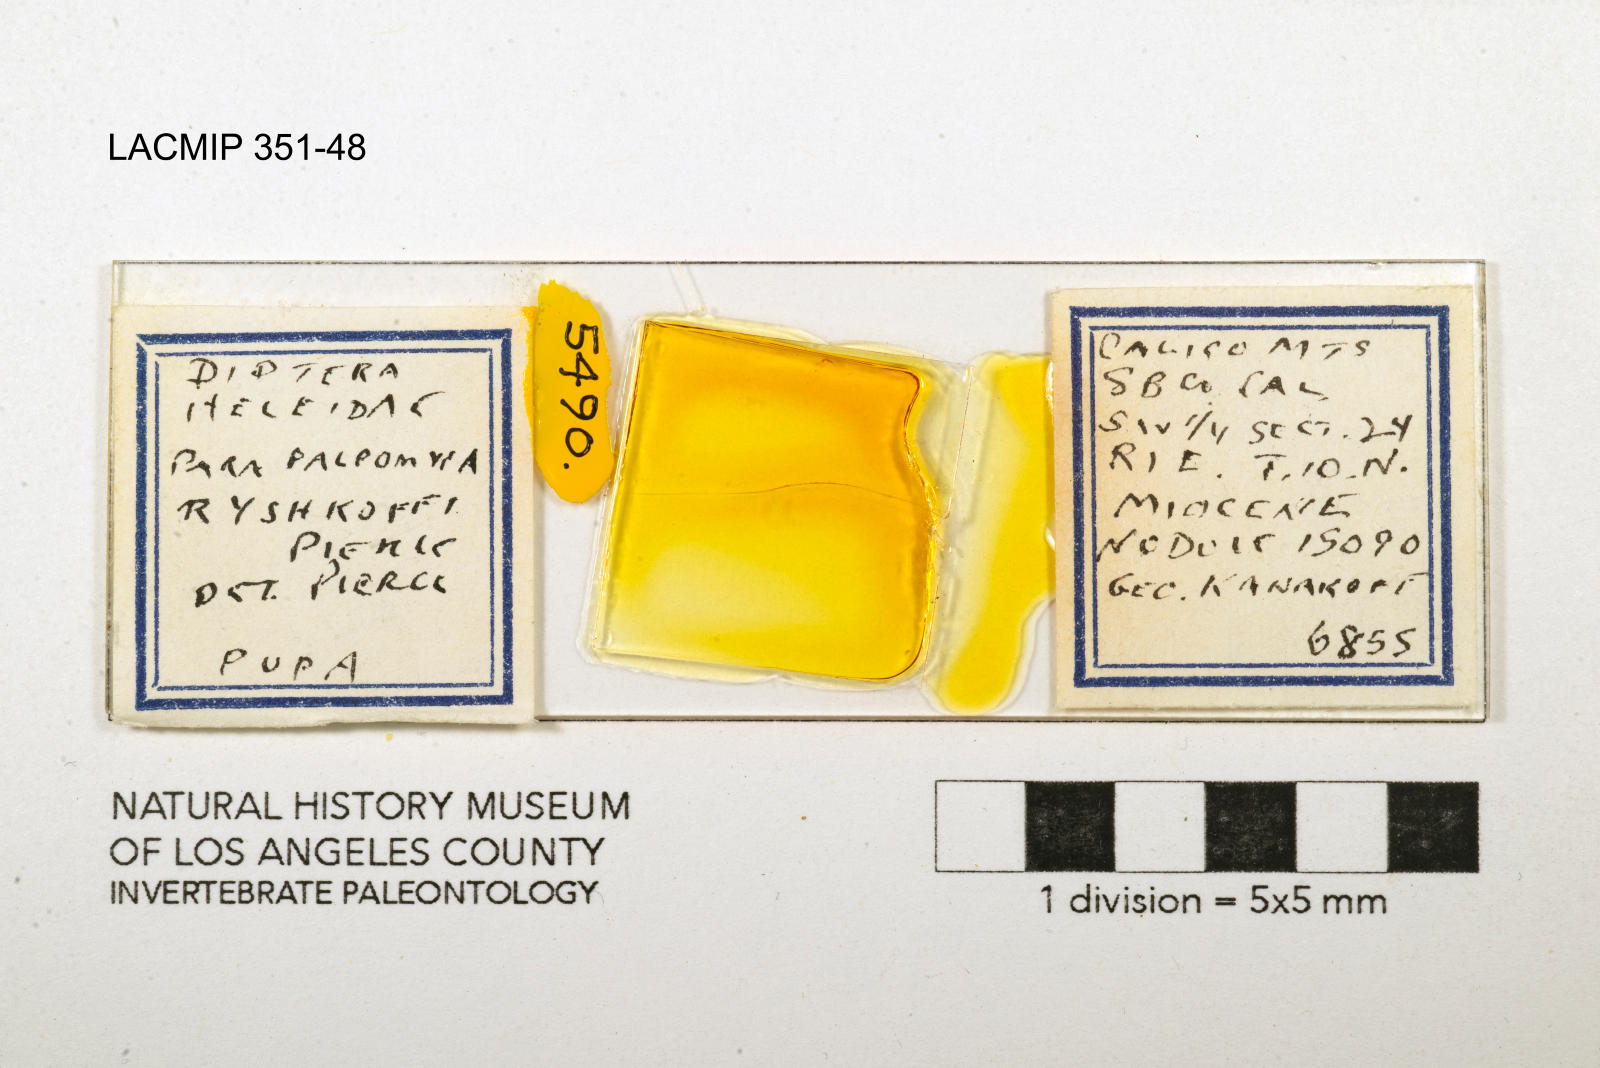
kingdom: Animalia
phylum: Arthropoda
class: Insecta
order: Diptera
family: Ceratopogonidae
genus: Palpomyia
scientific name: Palpomyia ryshkoffi
